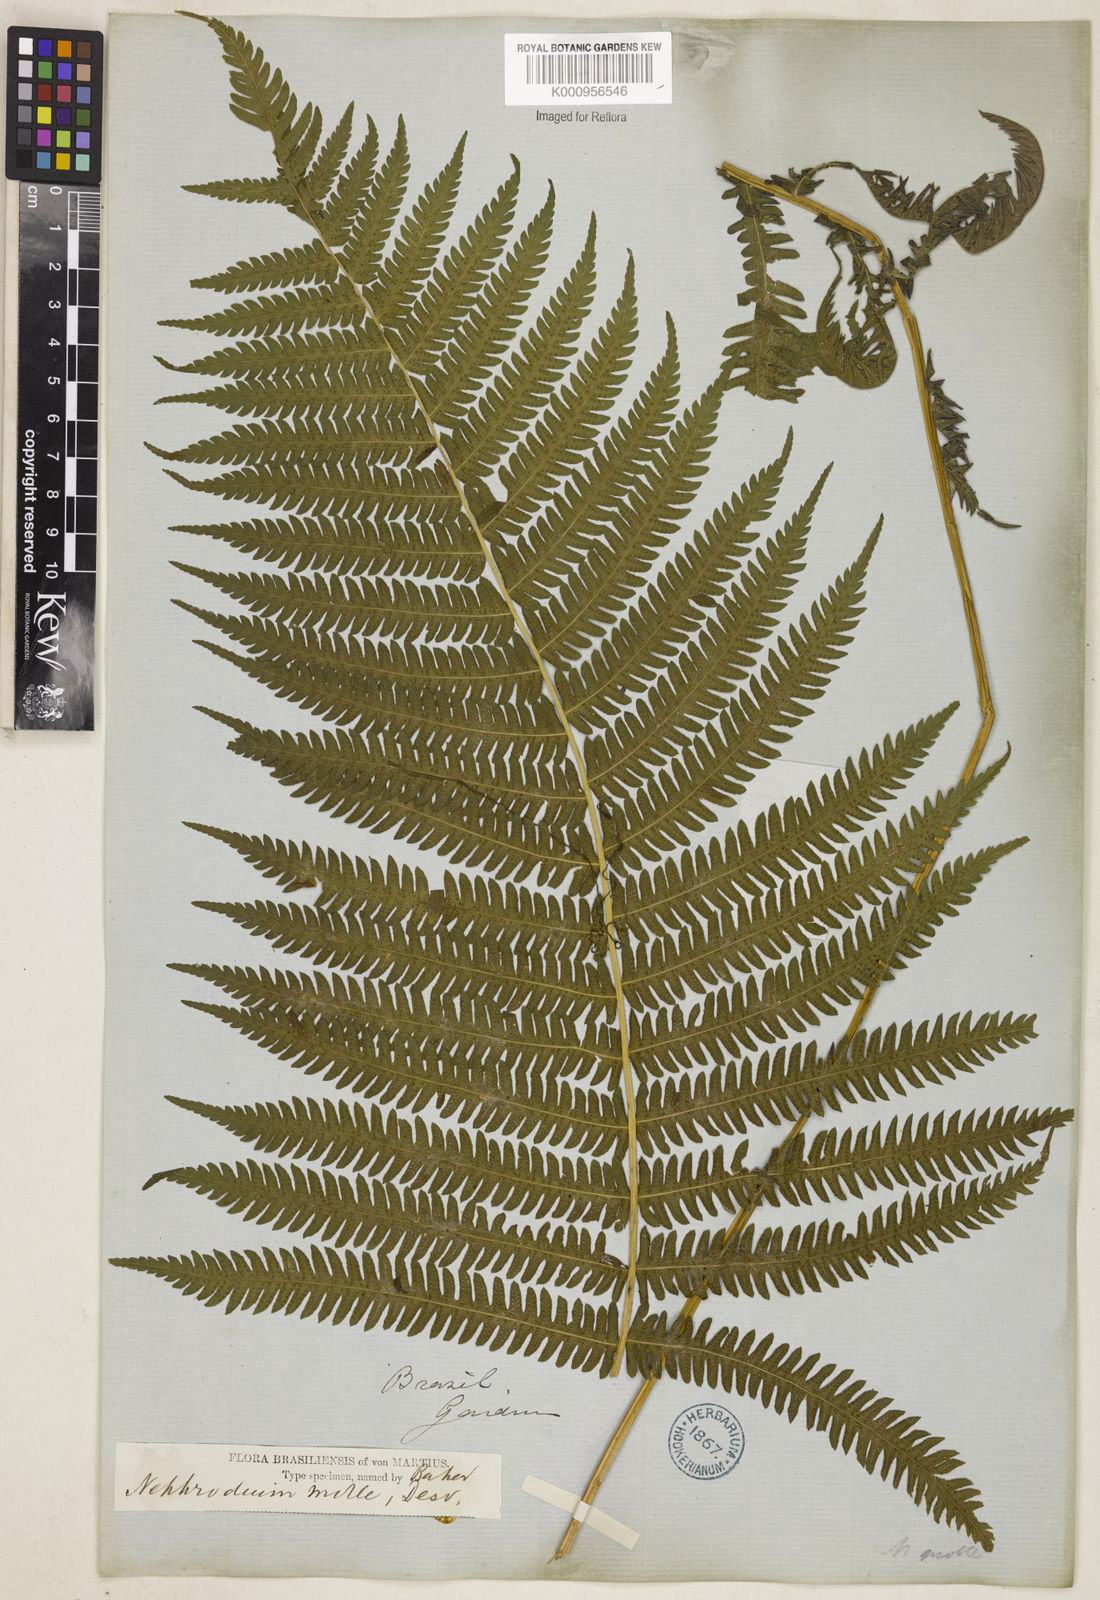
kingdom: Plantae
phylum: Tracheophyta
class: Polypodiopsida
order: Polypodiales
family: Thelypteridaceae
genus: Christella
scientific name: Christella hispidula
